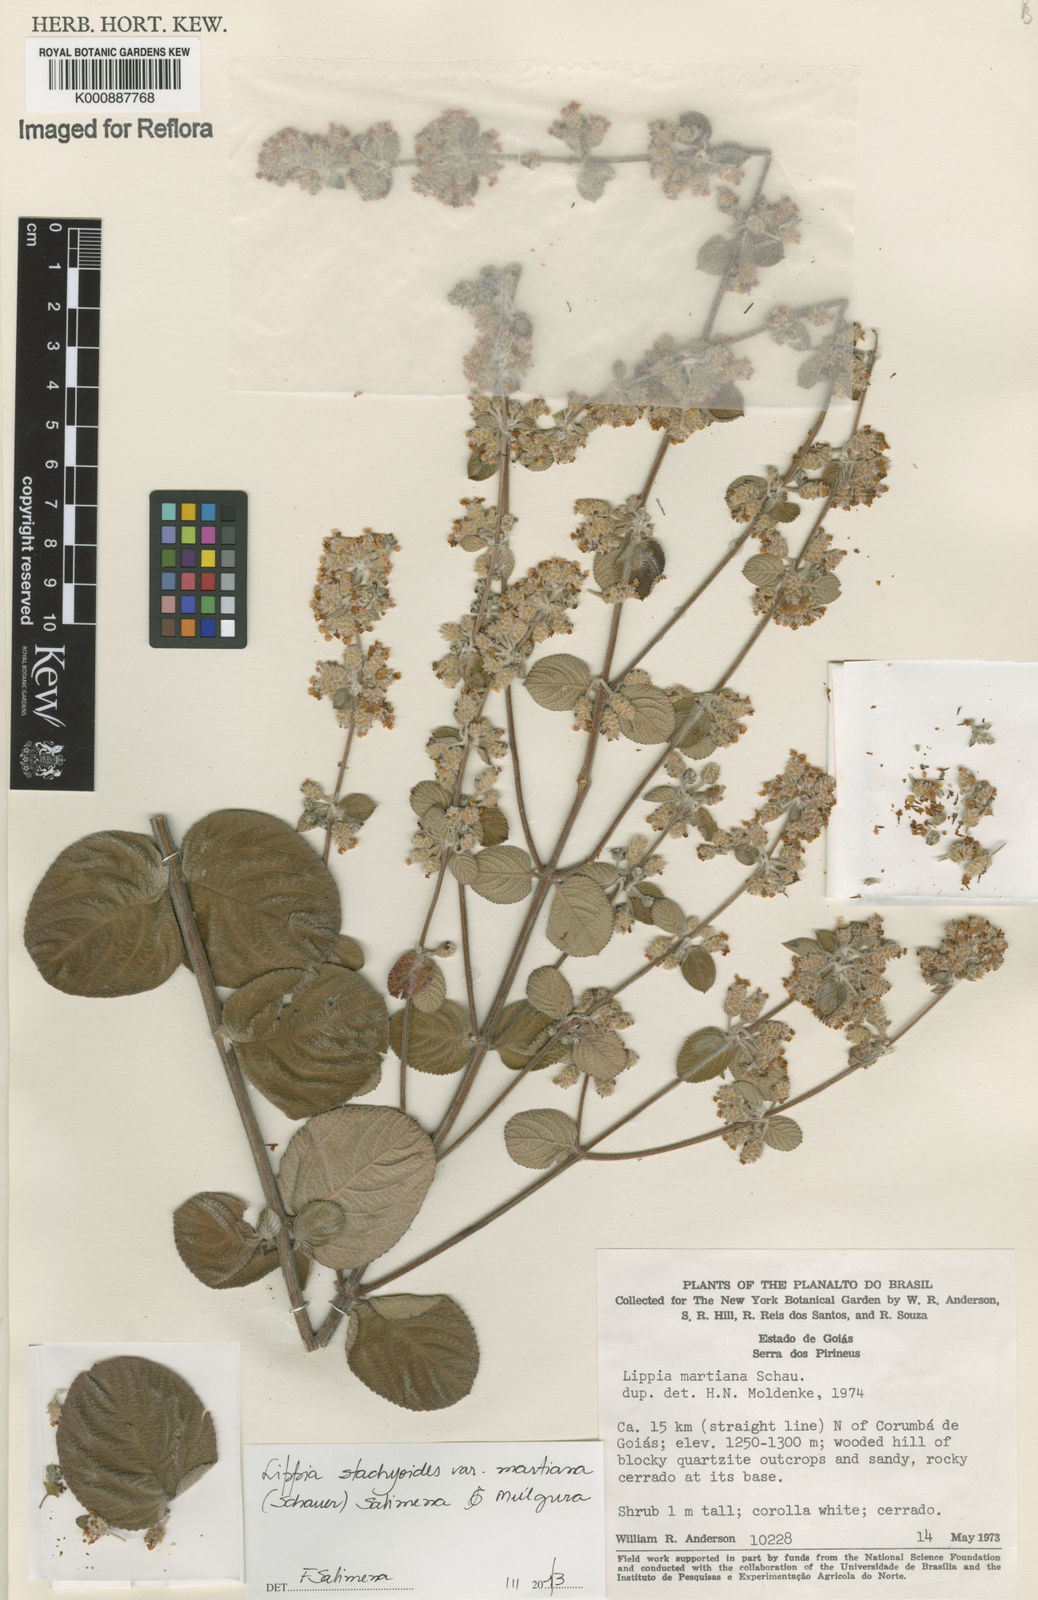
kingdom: Plantae
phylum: Tracheophyta
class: Magnoliopsida
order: Lamiales
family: Verbenaceae
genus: Lippia
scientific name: Lippia stachyoides
